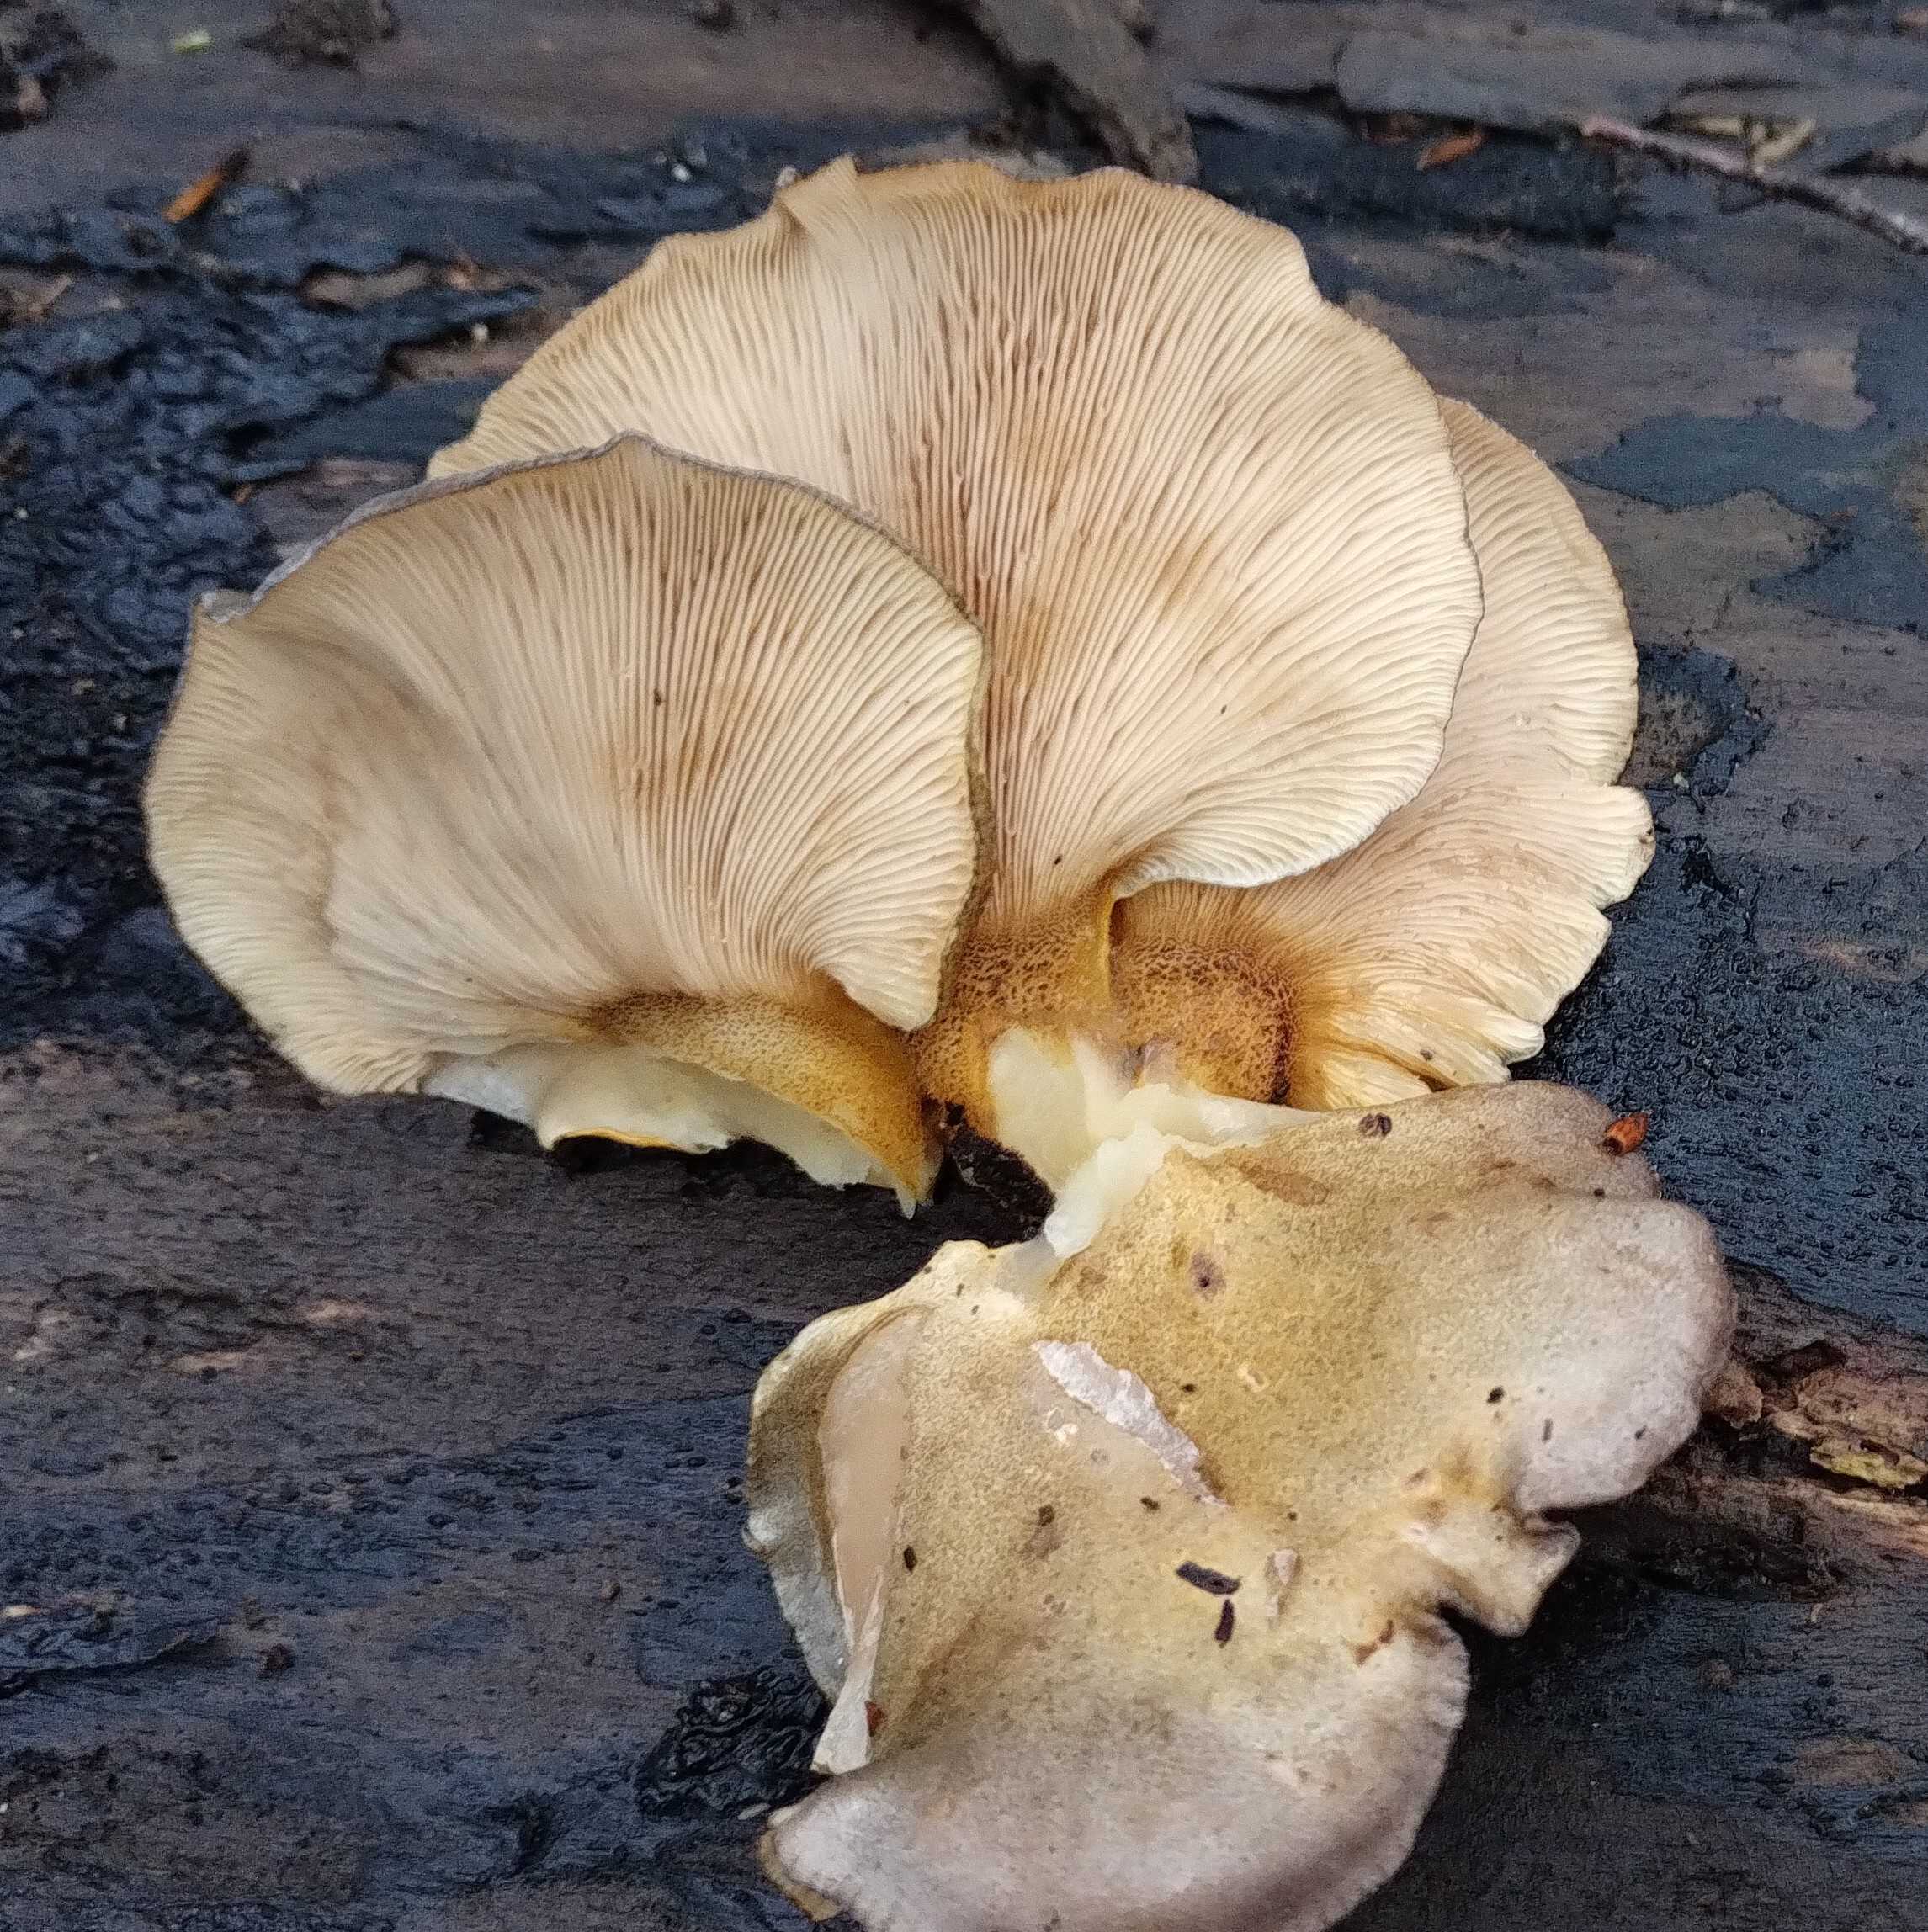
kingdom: Fungi
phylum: Basidiomycota
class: Agaricomycetes
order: Agaricales
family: Sarcomyxaceae
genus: Sarcomyxa
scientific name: Sarcomyxa serotina
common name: gummihat
